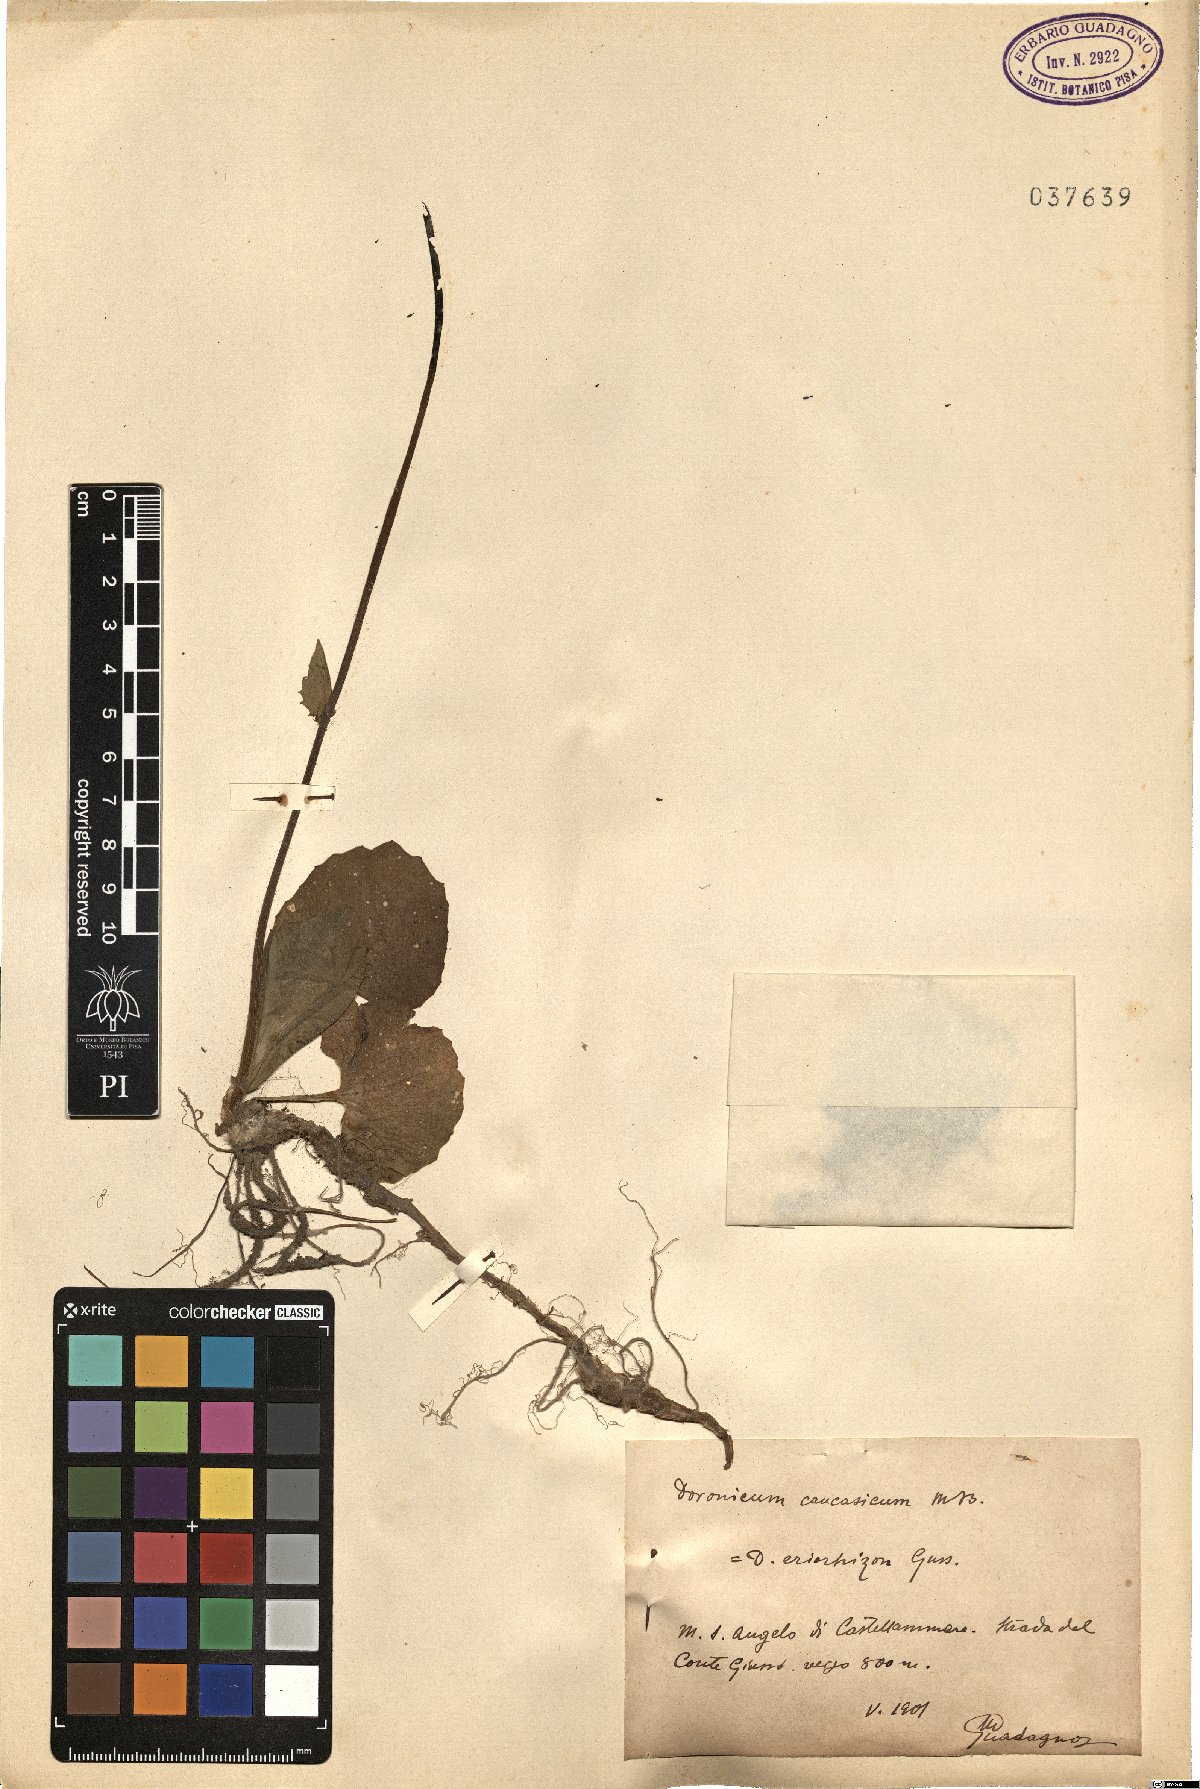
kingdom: Plantae
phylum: Tracheophyta
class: Magnoliopsida
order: Asterales
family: Asteraceae
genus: Doronicum
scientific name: Doronicum orientale
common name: Oriental leopard's-bane
